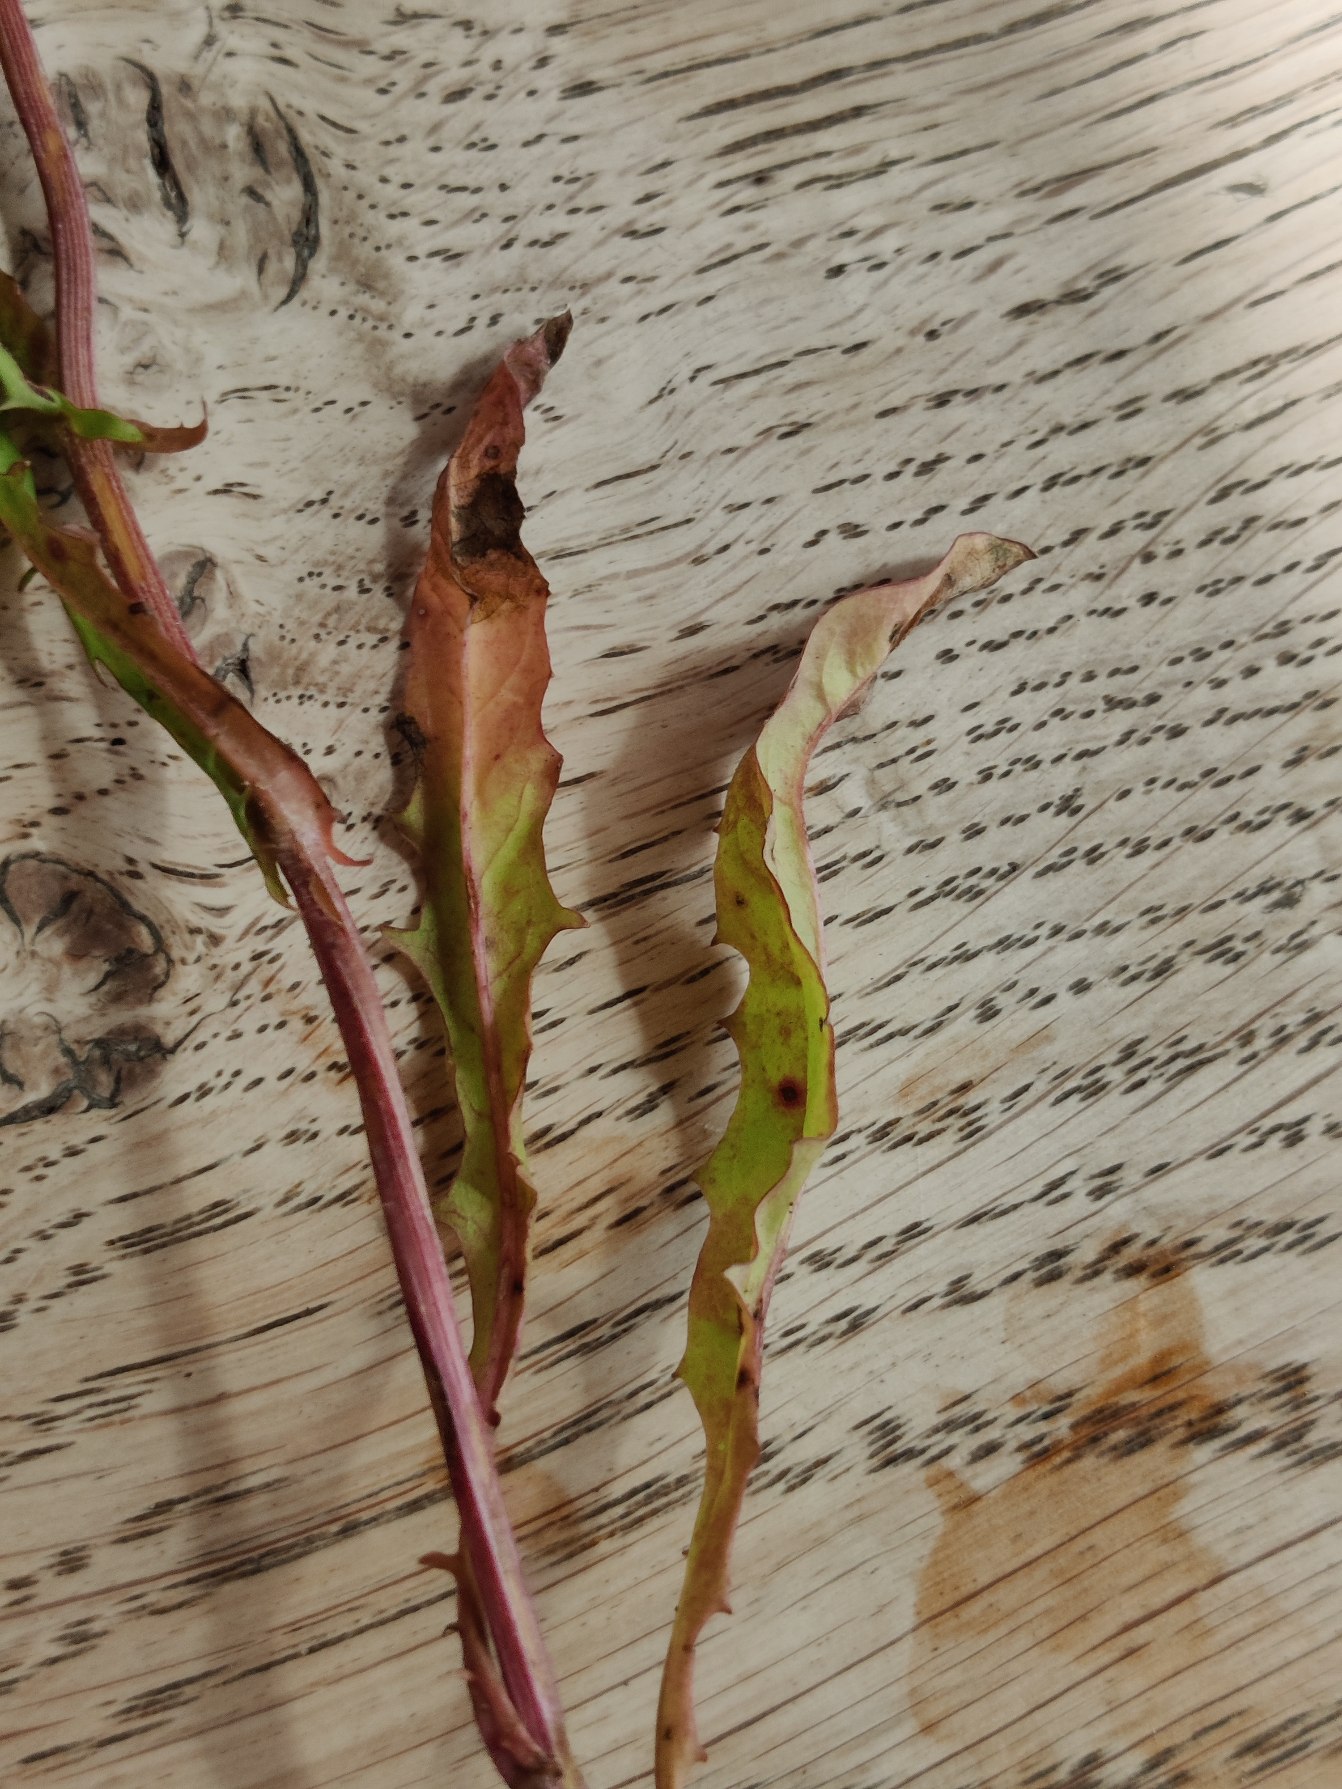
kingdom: Plantae
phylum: Tracheophyta
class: Magnoliopsida
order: Asterales
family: Asteraceae
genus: Crepis
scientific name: Crepis capillaris
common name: Grøn høgeskæg
